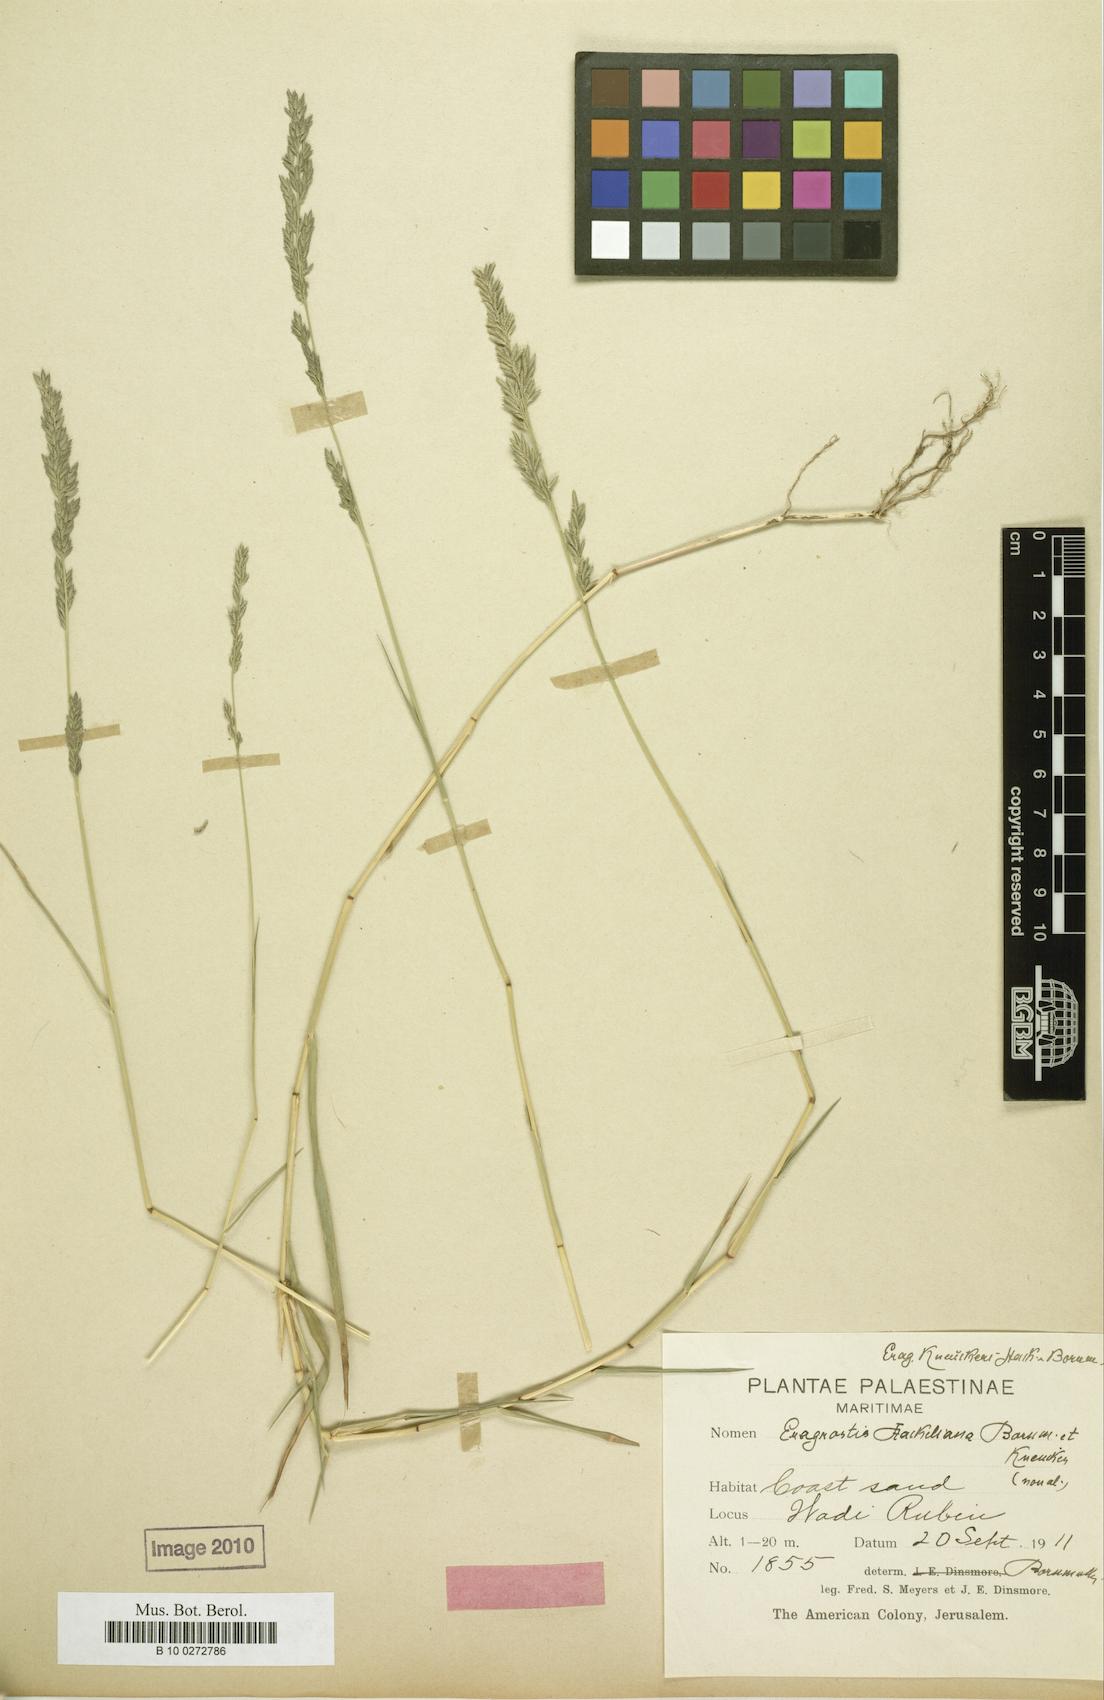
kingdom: Plantae
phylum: Tracheophyta
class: Liliopsida
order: Poales
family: Poaceae
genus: Eragrostis
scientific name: Eragrostis sarmentosa
